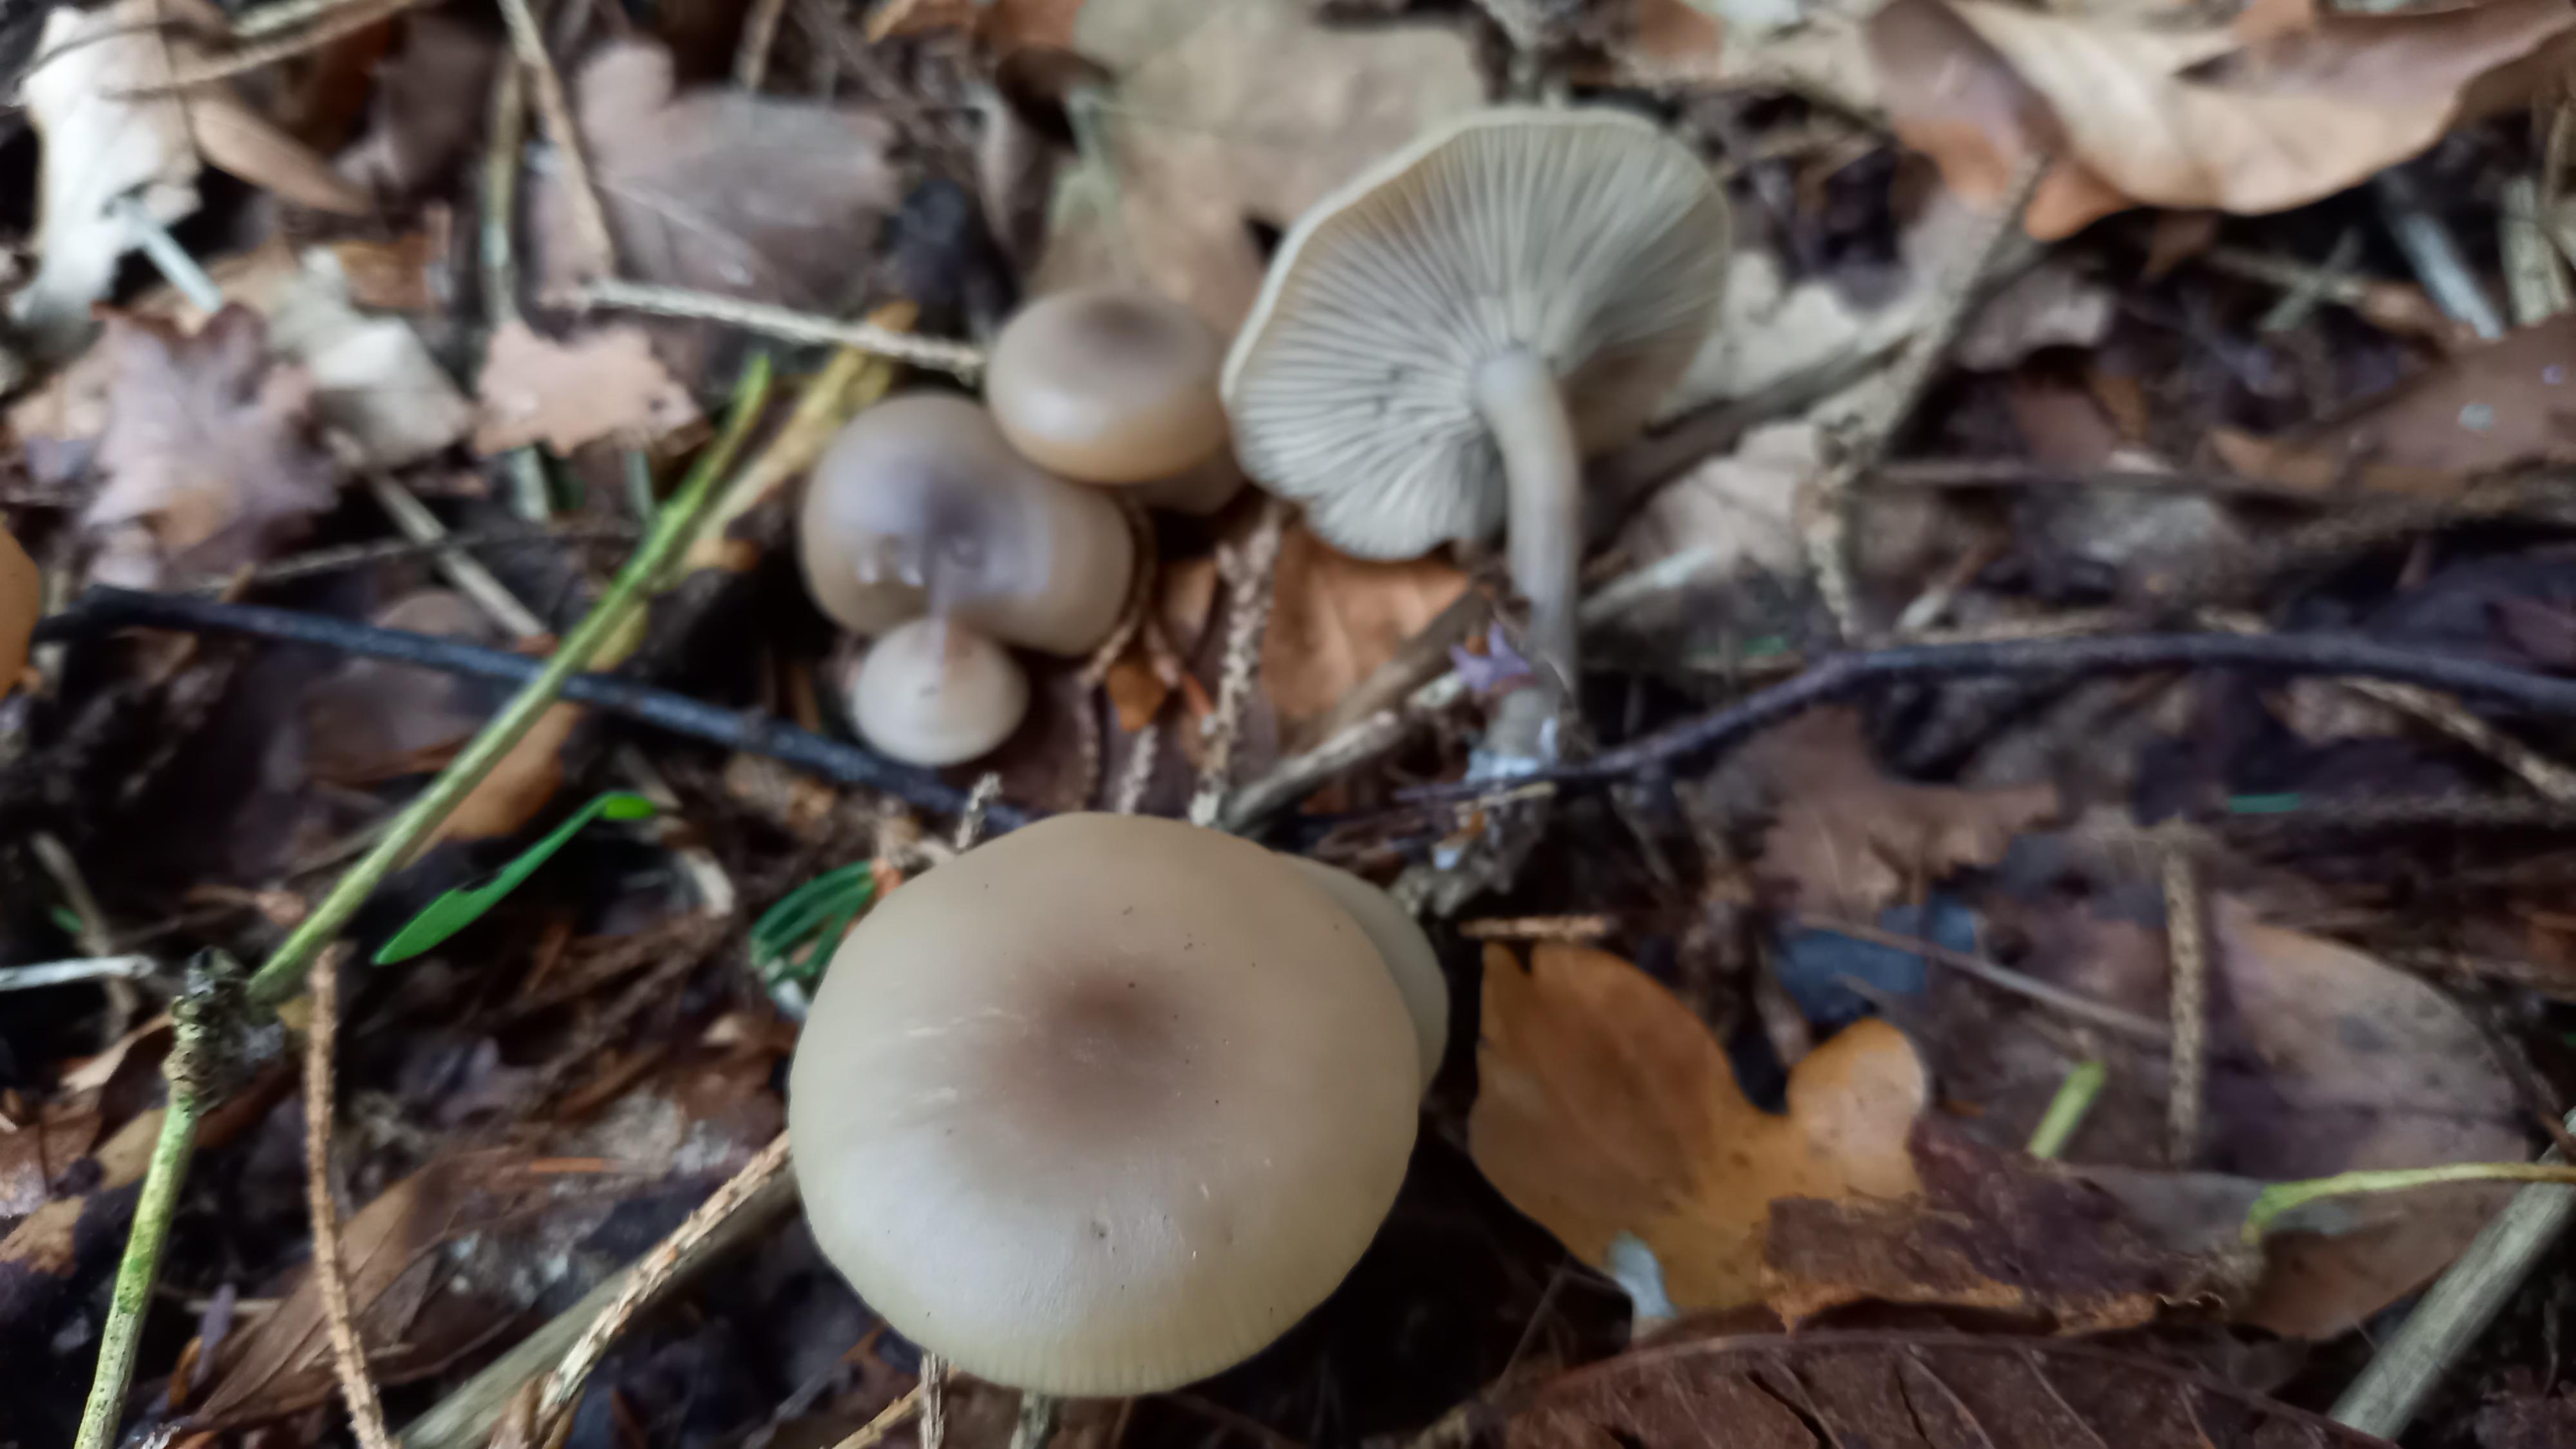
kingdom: Fungi
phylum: Basidiomycota
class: Agaricomycetes
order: Agaricales
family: Tricholomataceae
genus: Clitocybe
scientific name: Clitocybe metachroa
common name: grå tragthat
